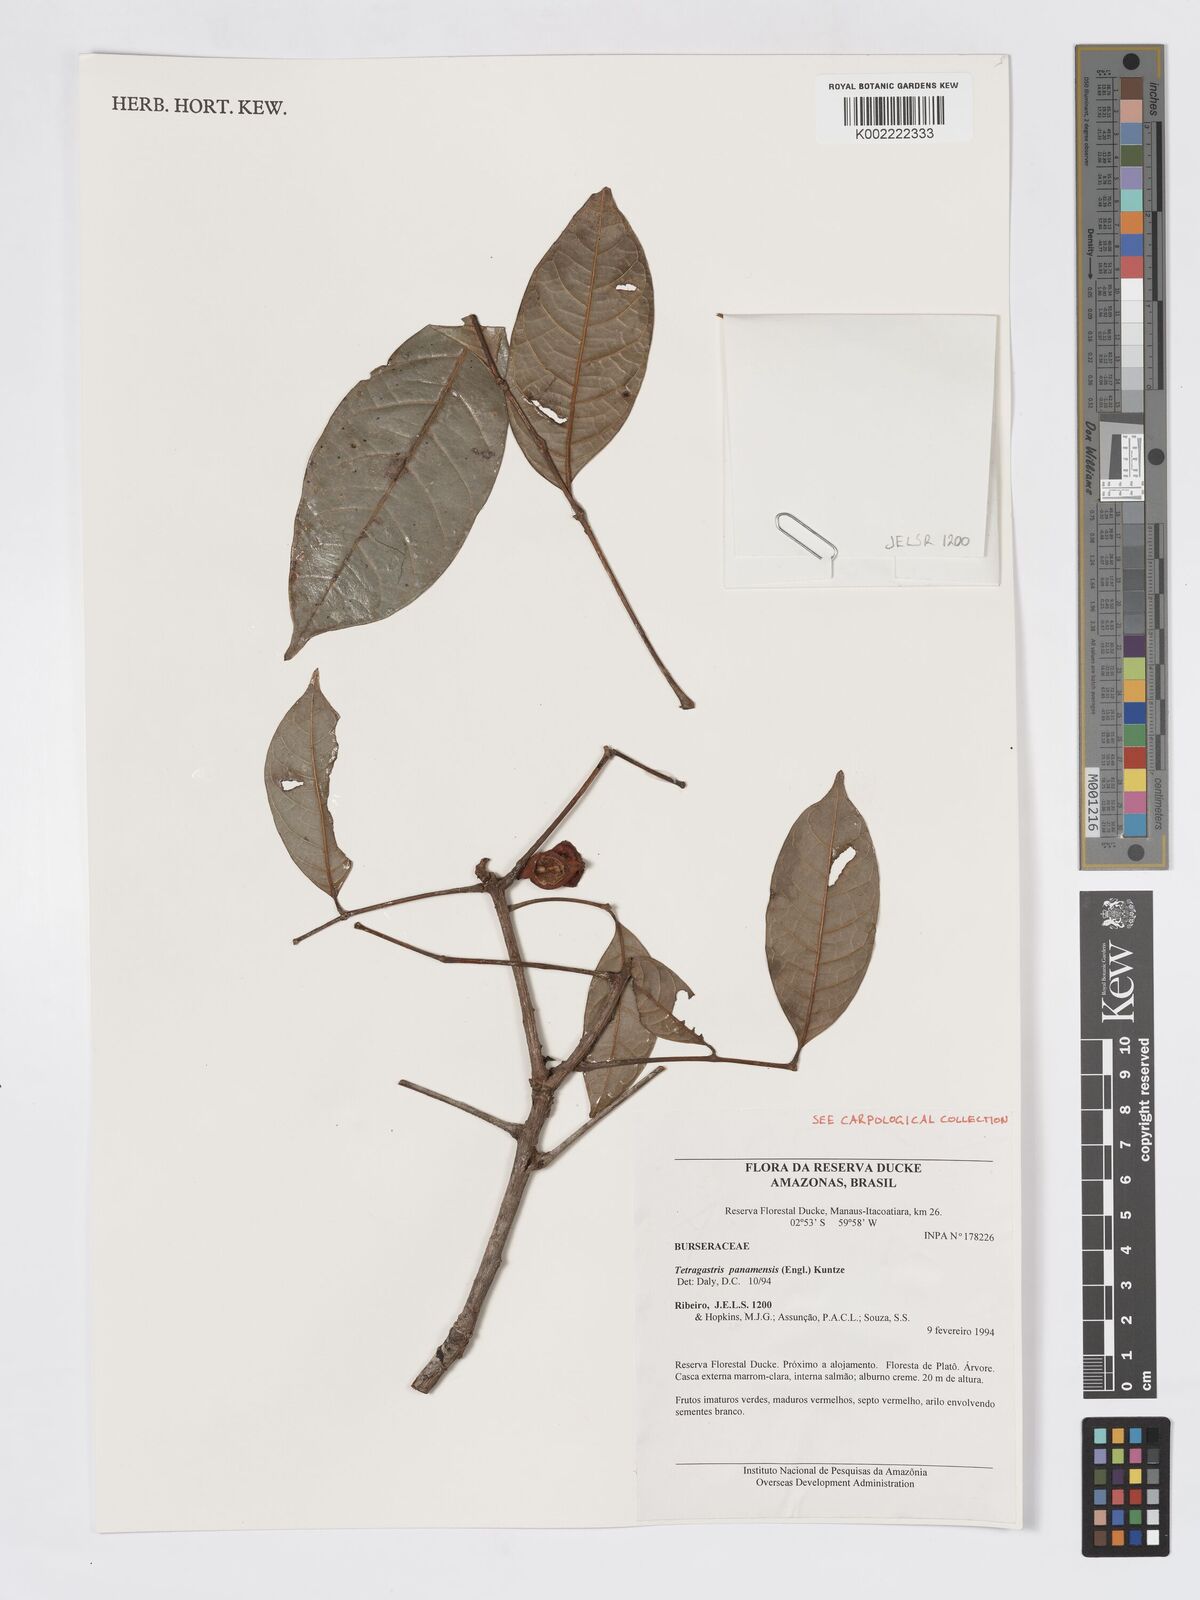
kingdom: Plantae
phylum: Tracheophyta
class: Magnoliopsida
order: Sapindales
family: Burseraceae
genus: Tetragastris
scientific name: Tetragastris panamensis
